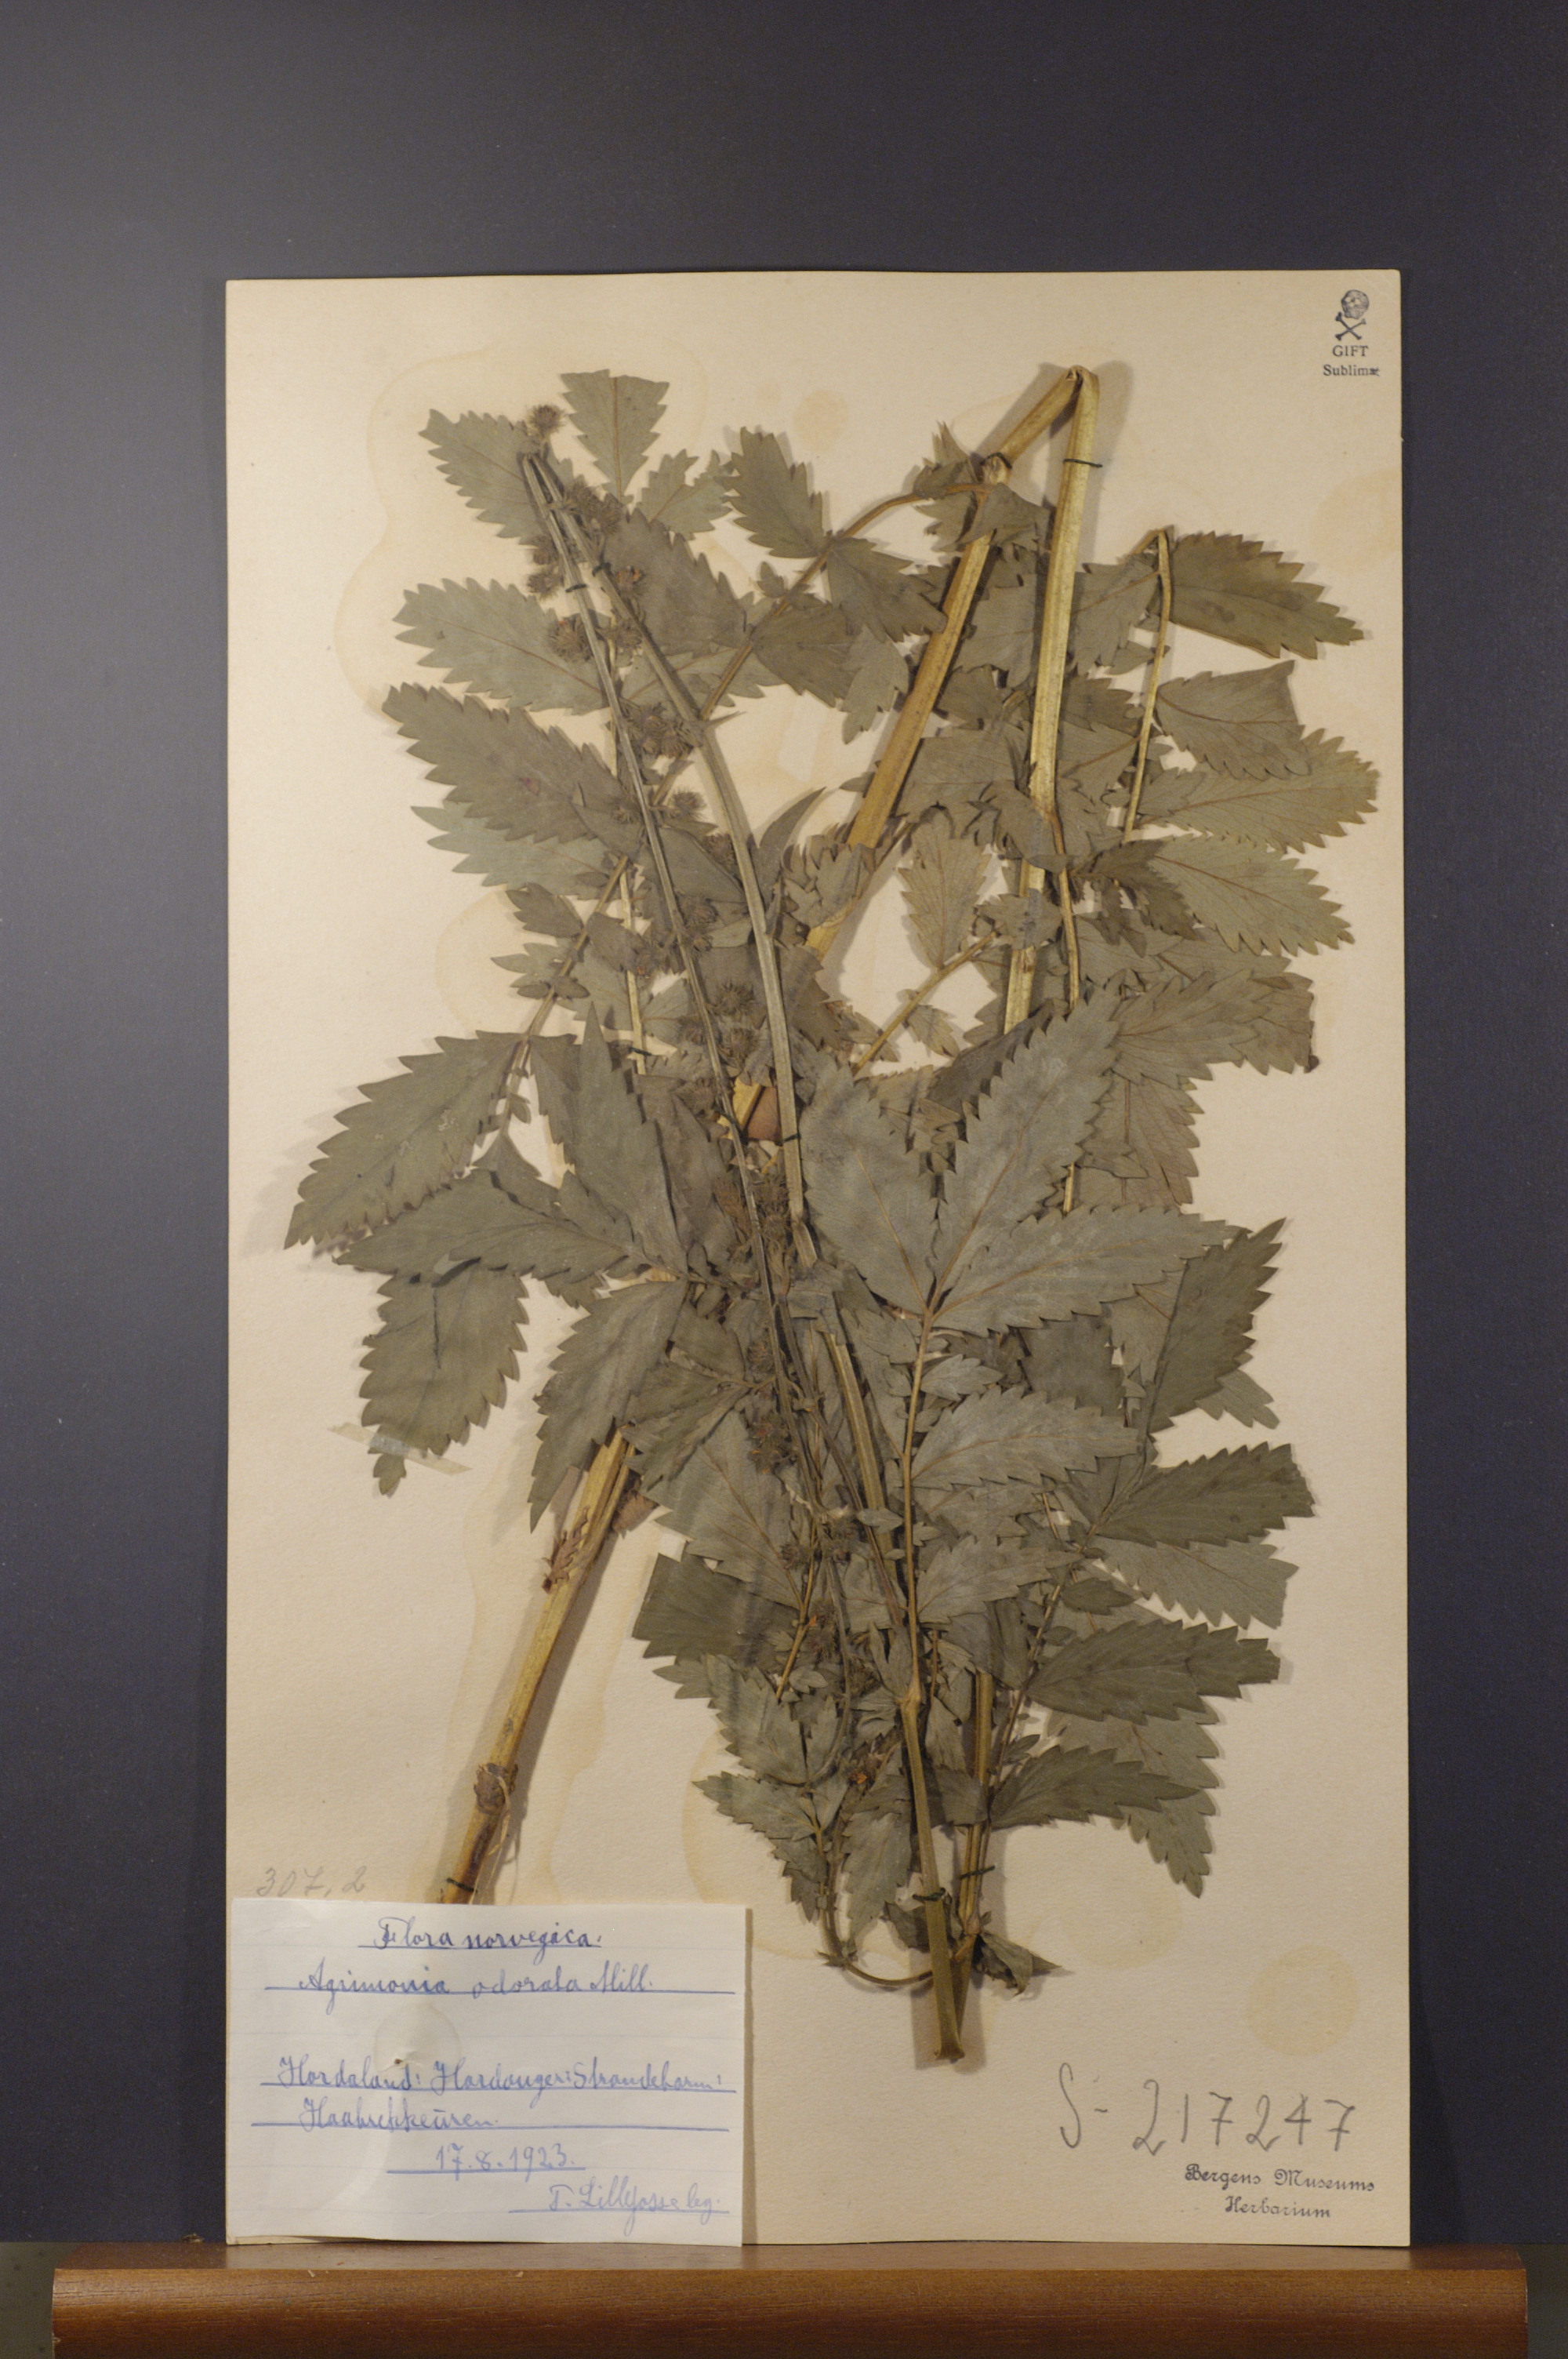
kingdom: Plantae
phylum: Tracheophyta
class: Magnoliopsida
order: Rosales
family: Rosaceae
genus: Agrimonia
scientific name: Agrimonia procera
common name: Fragrant agrimony
